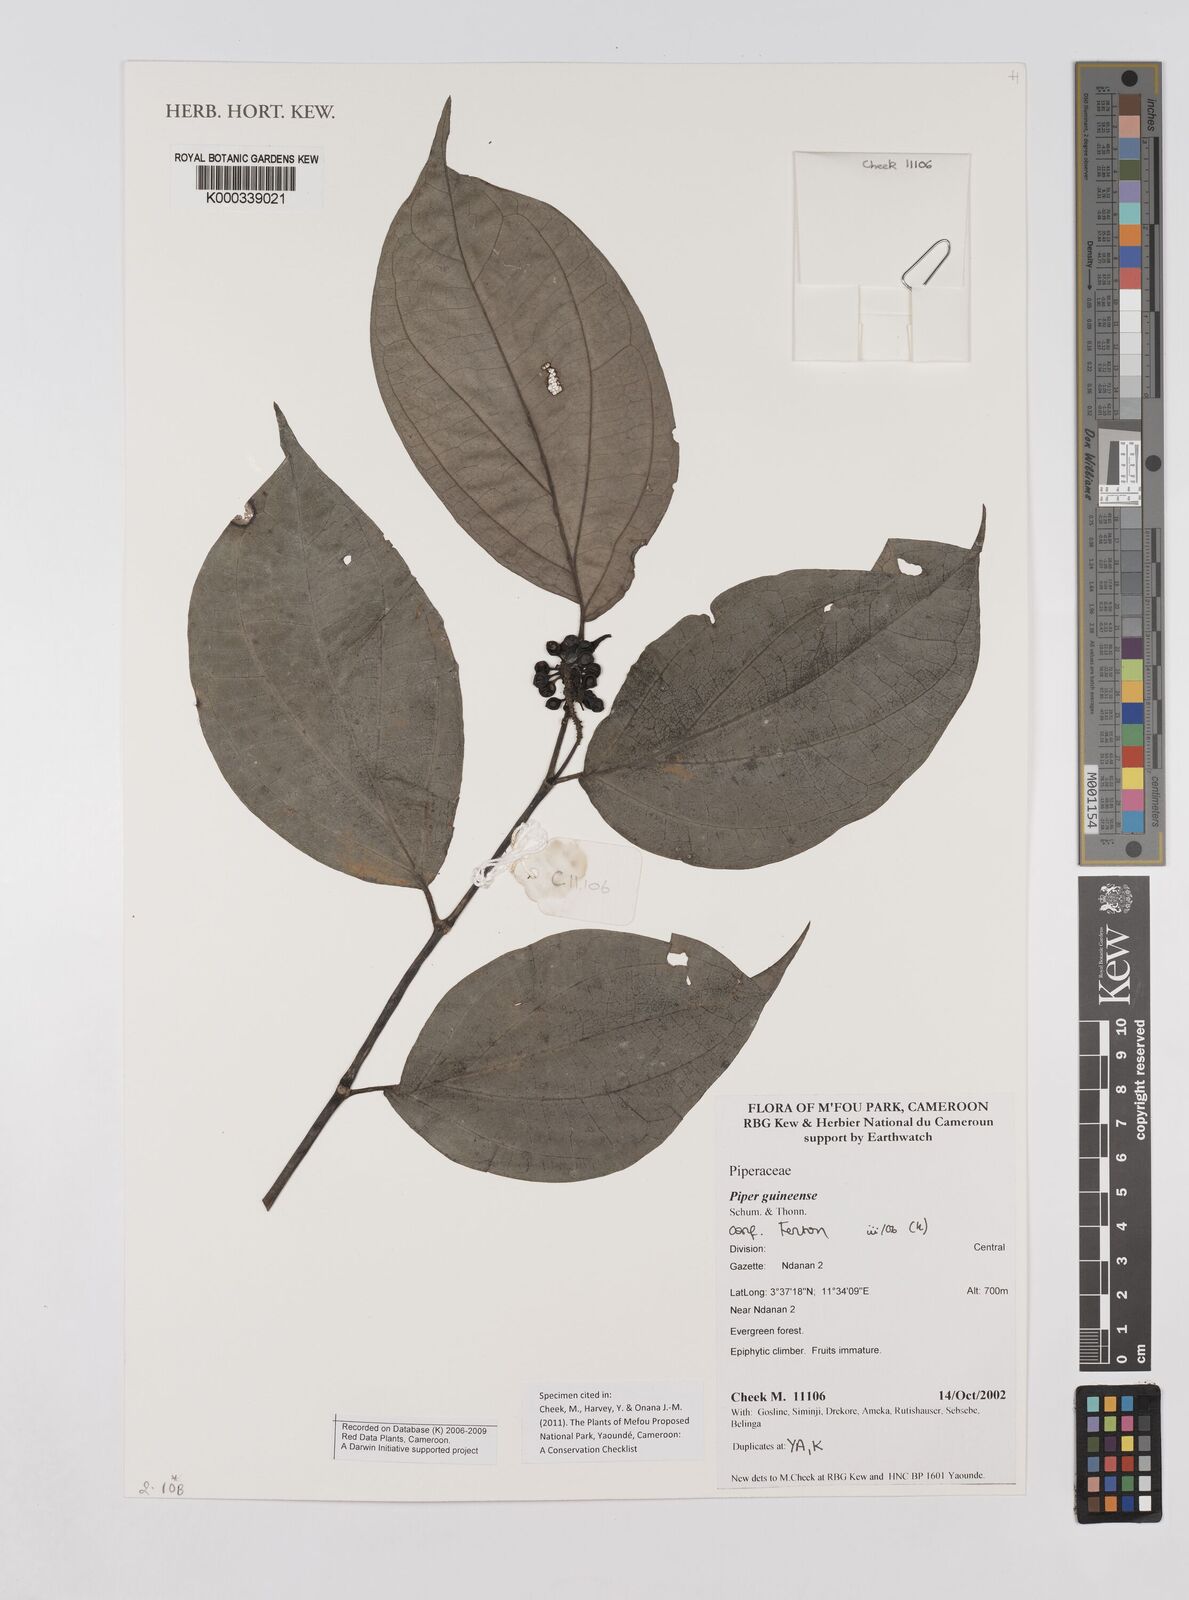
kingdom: Plantae
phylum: Tracheophyta
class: Magnoliopsida
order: Piperales
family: Piperaceae
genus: Piper
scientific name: Piper guineense
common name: Benin pepper
